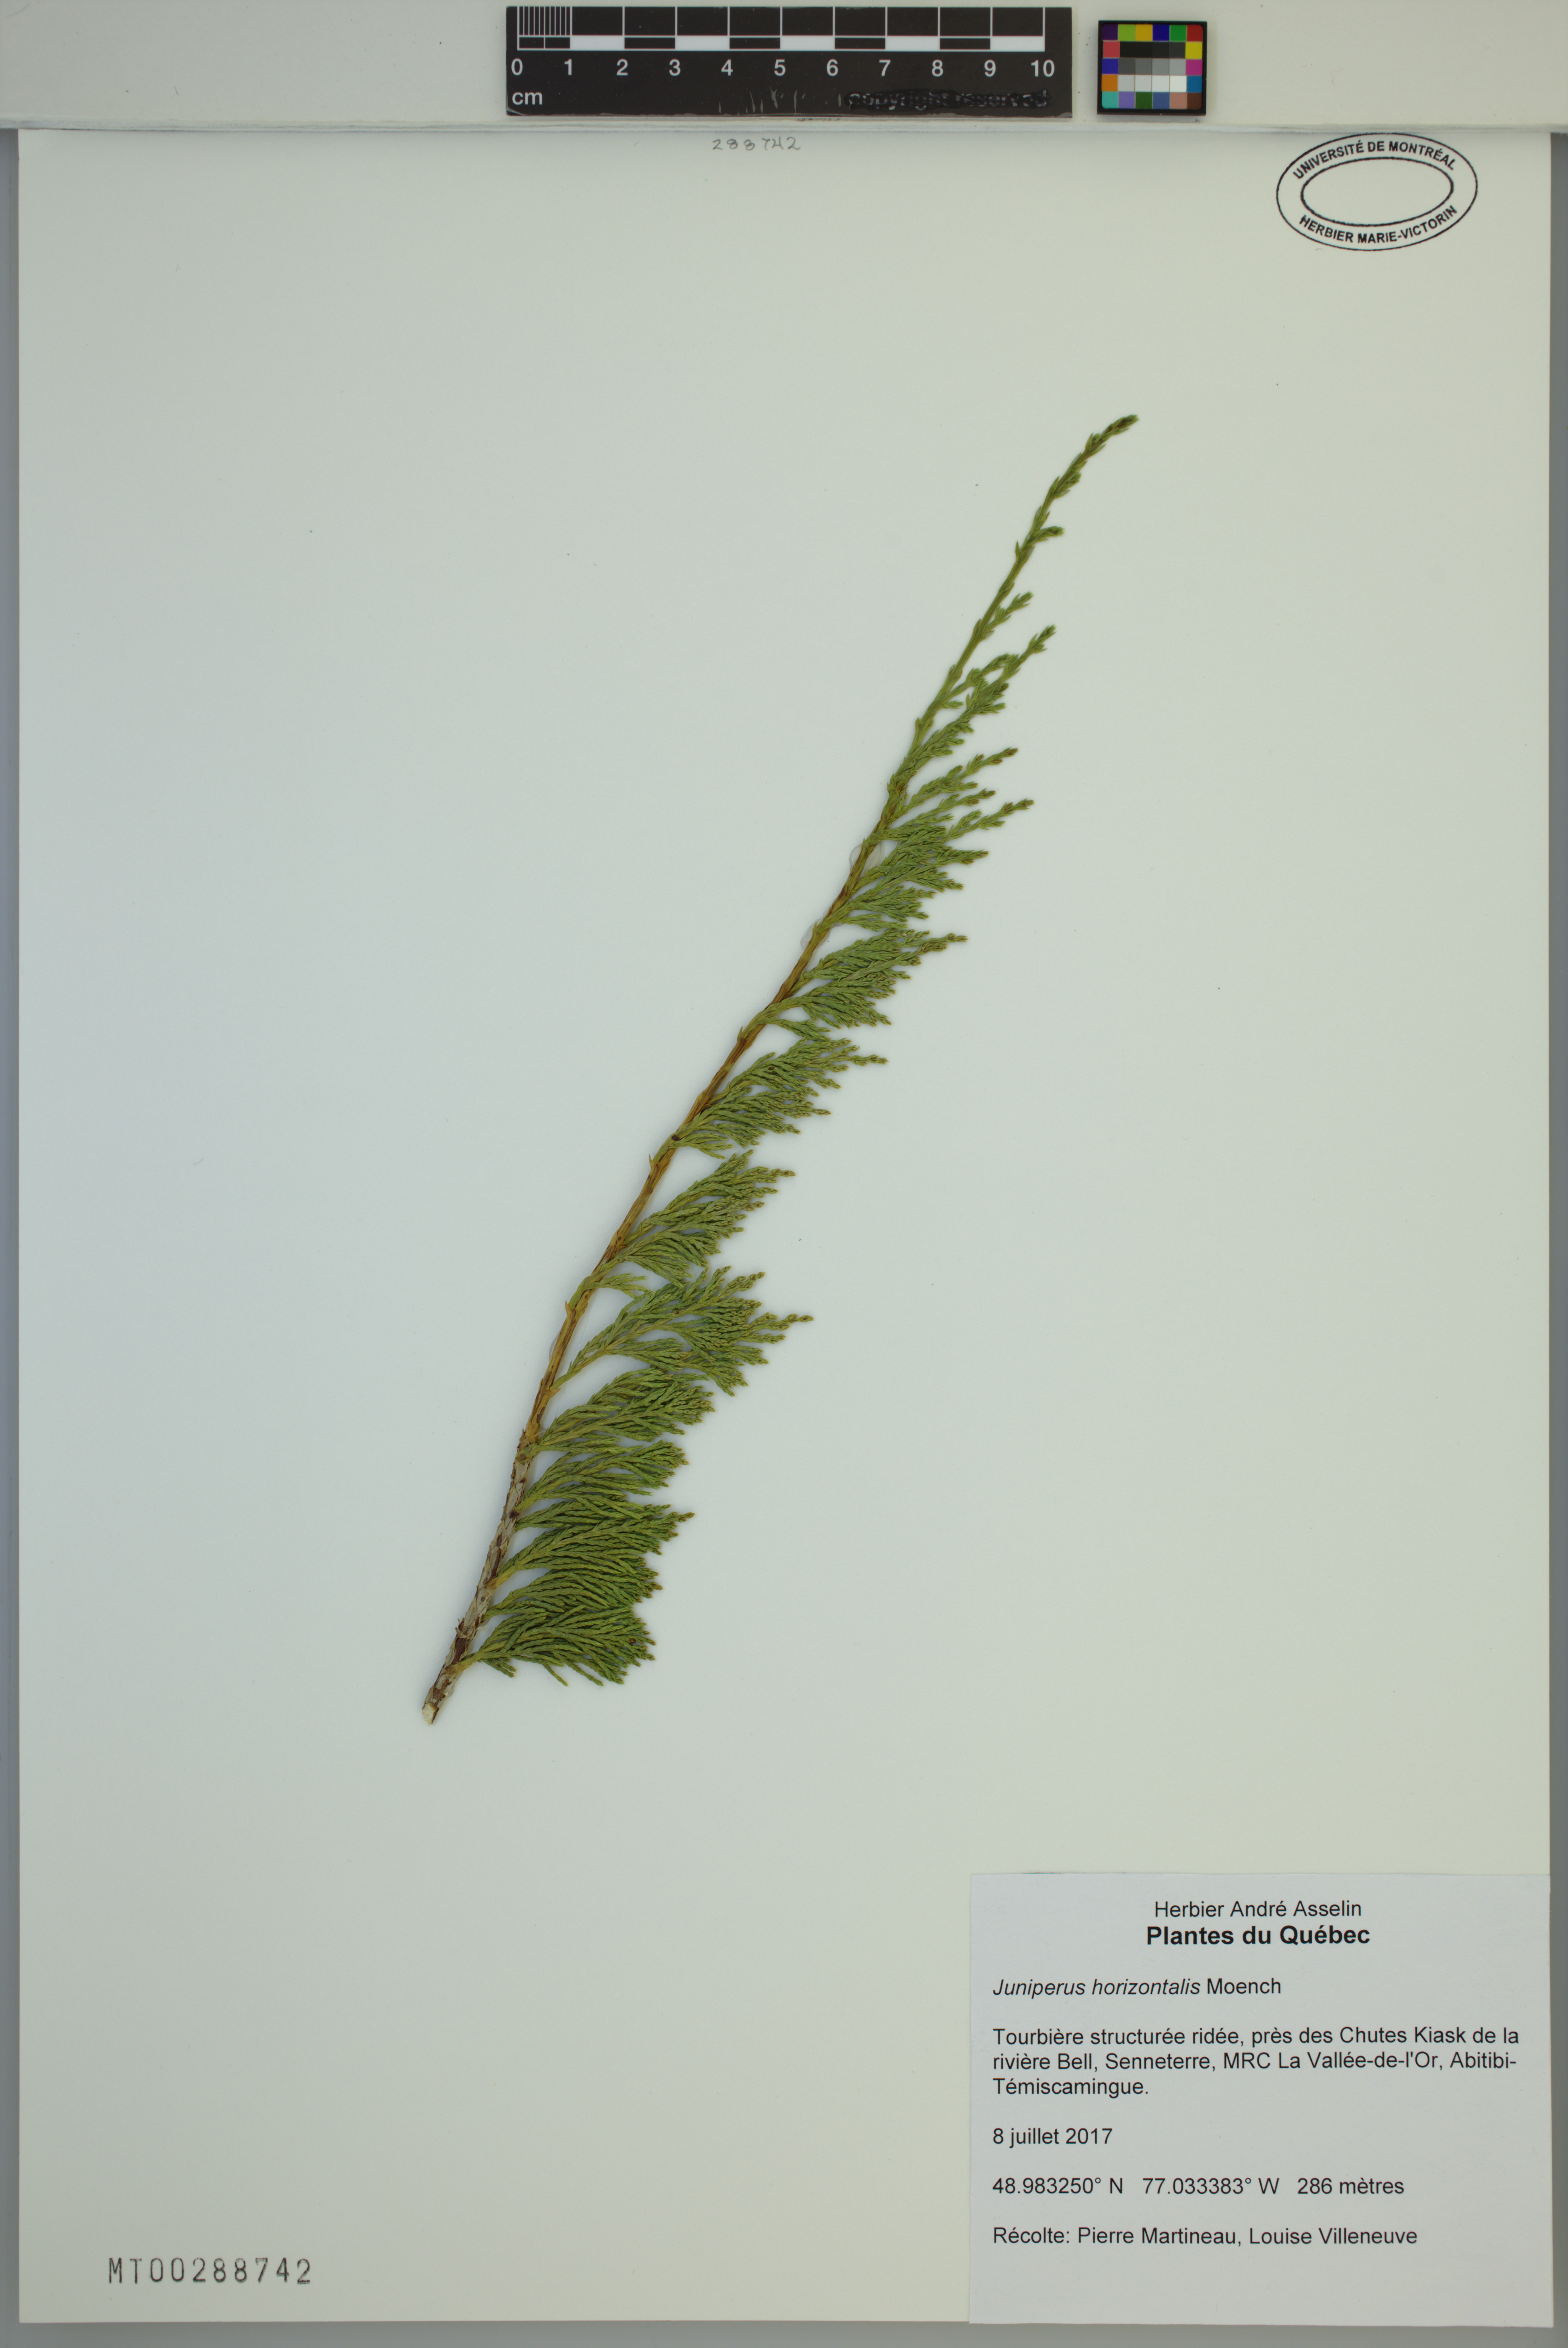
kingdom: Plantae
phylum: Tracheophyta
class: Pinopsida
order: Pinales
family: Cupressaceae
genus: Juniperus
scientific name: Juniperus horizontalis
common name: Creeping juniper
